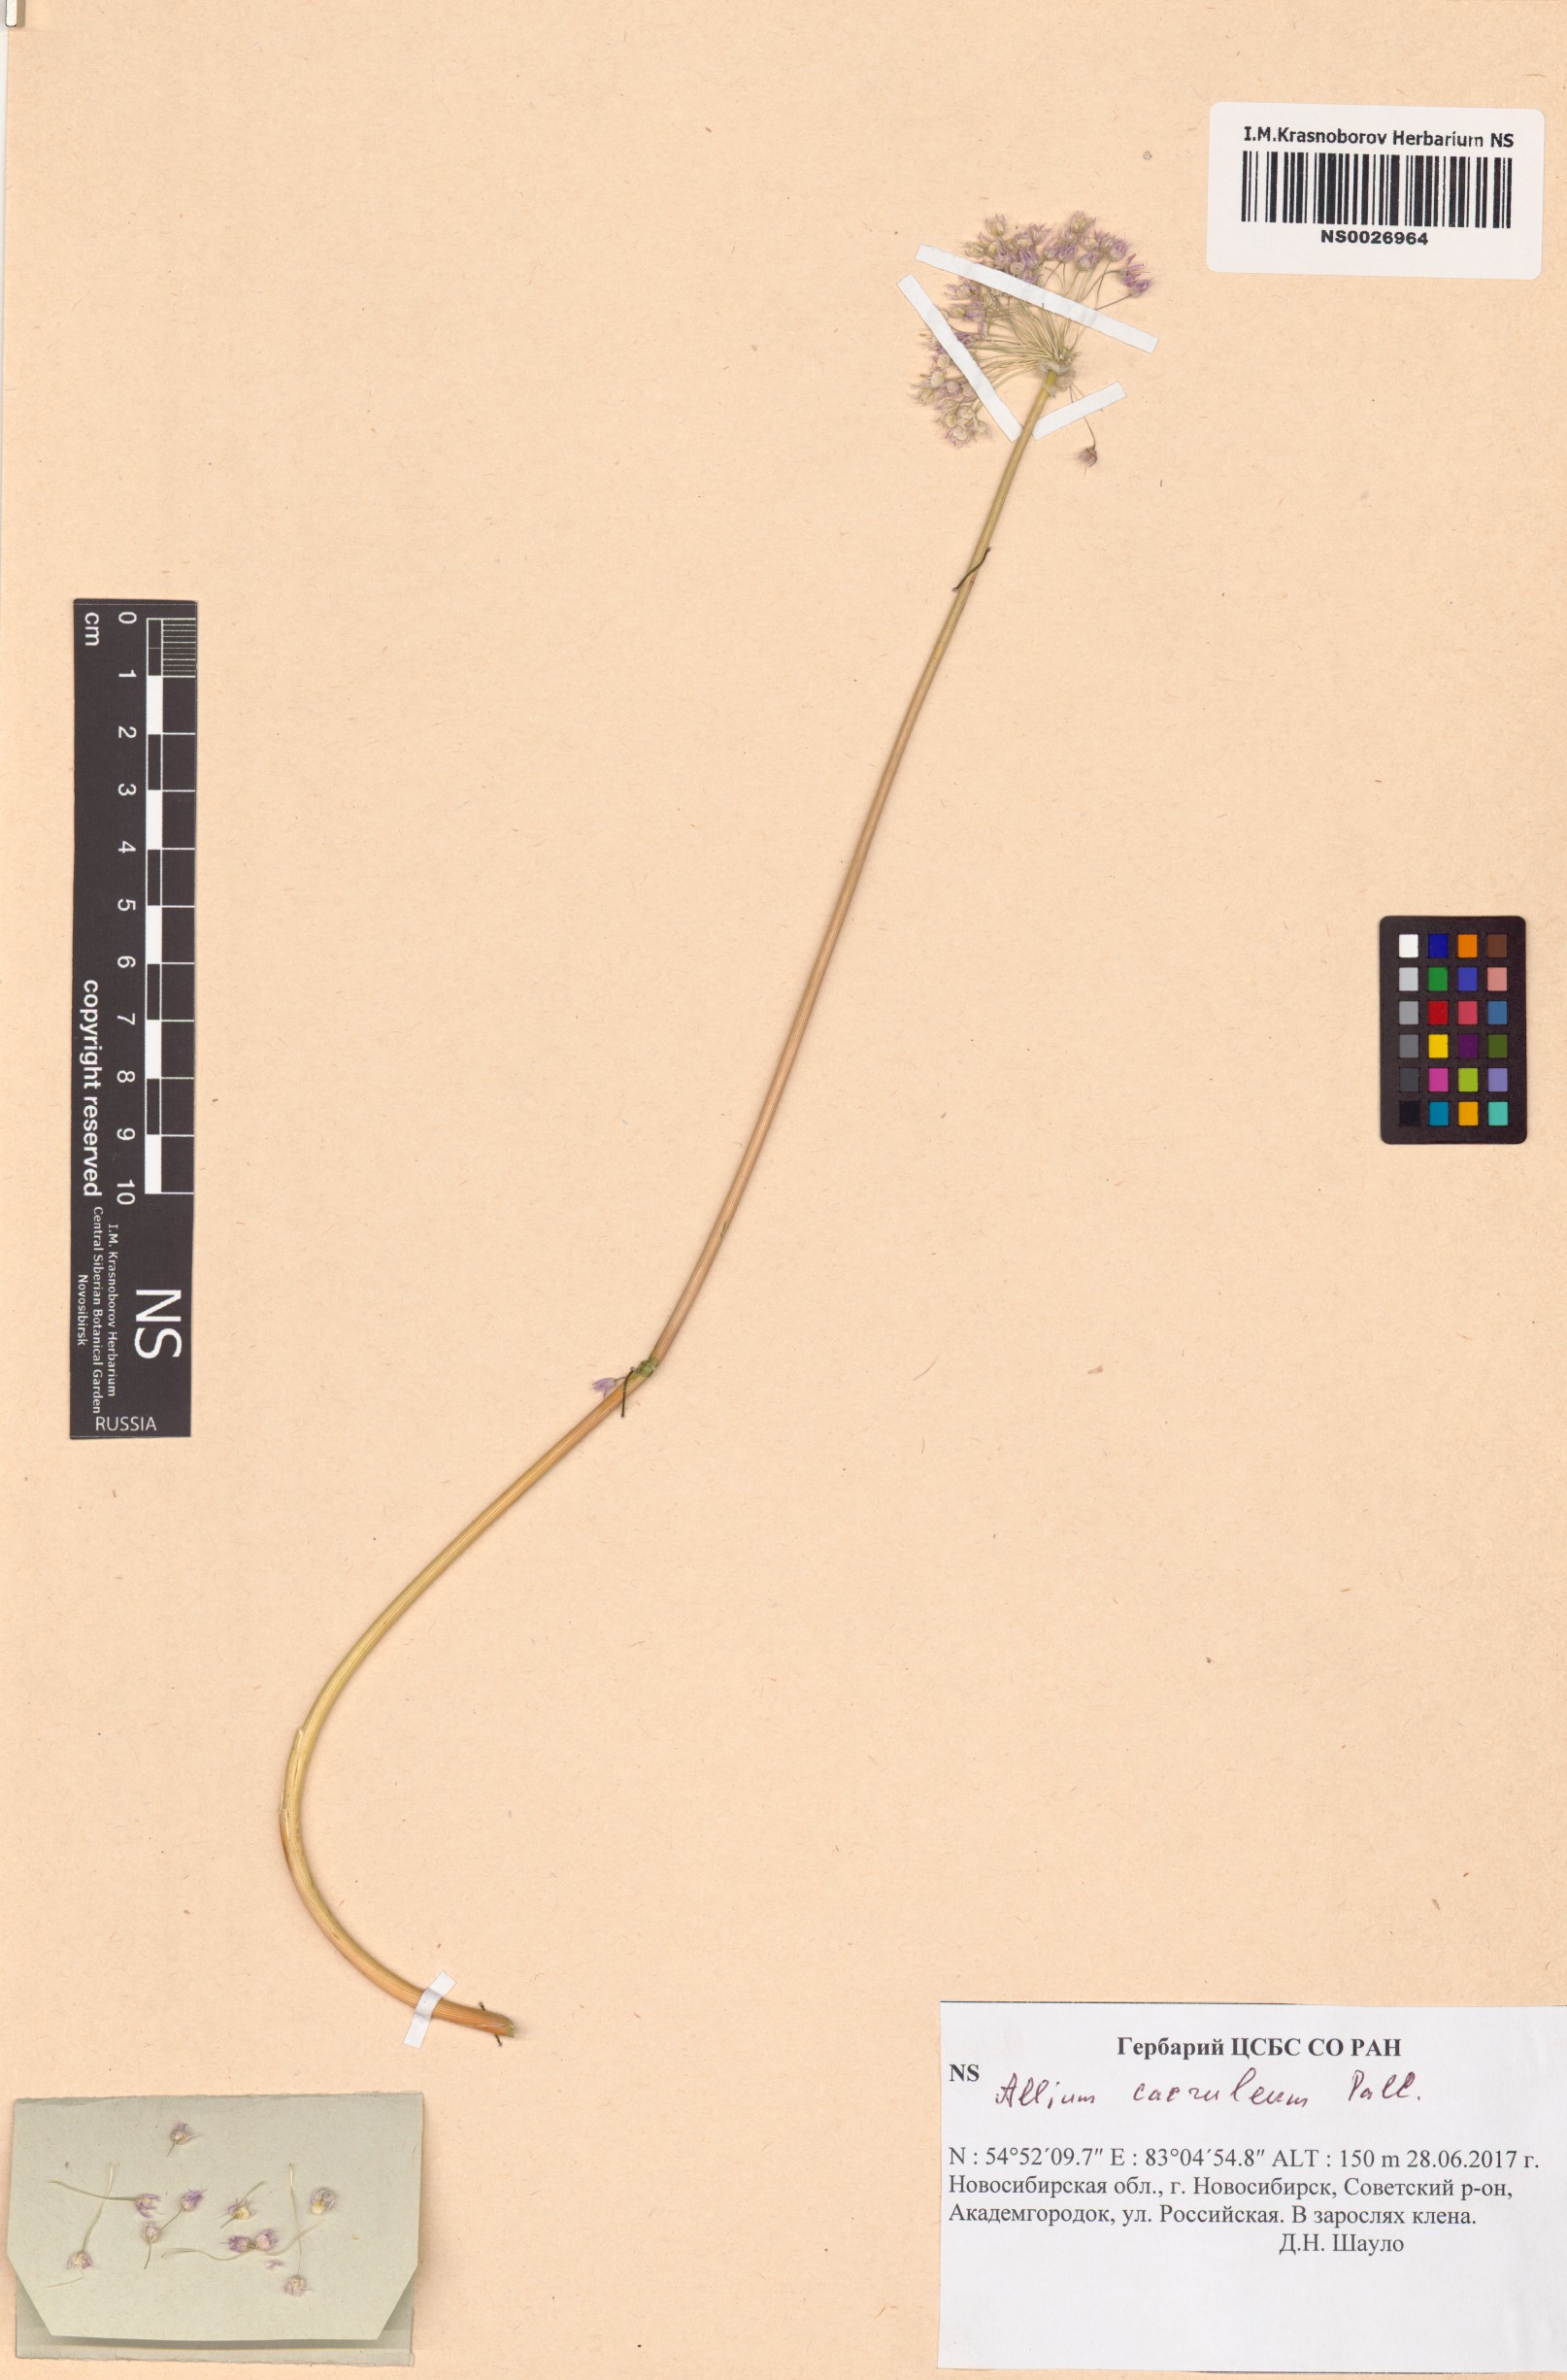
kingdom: Plantae
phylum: Tracheophyta
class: Liliopsida
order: Asparagales
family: Amaryllidaceae
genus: Allium
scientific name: Allium caeruleum
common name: Blue-of-the-heavens
